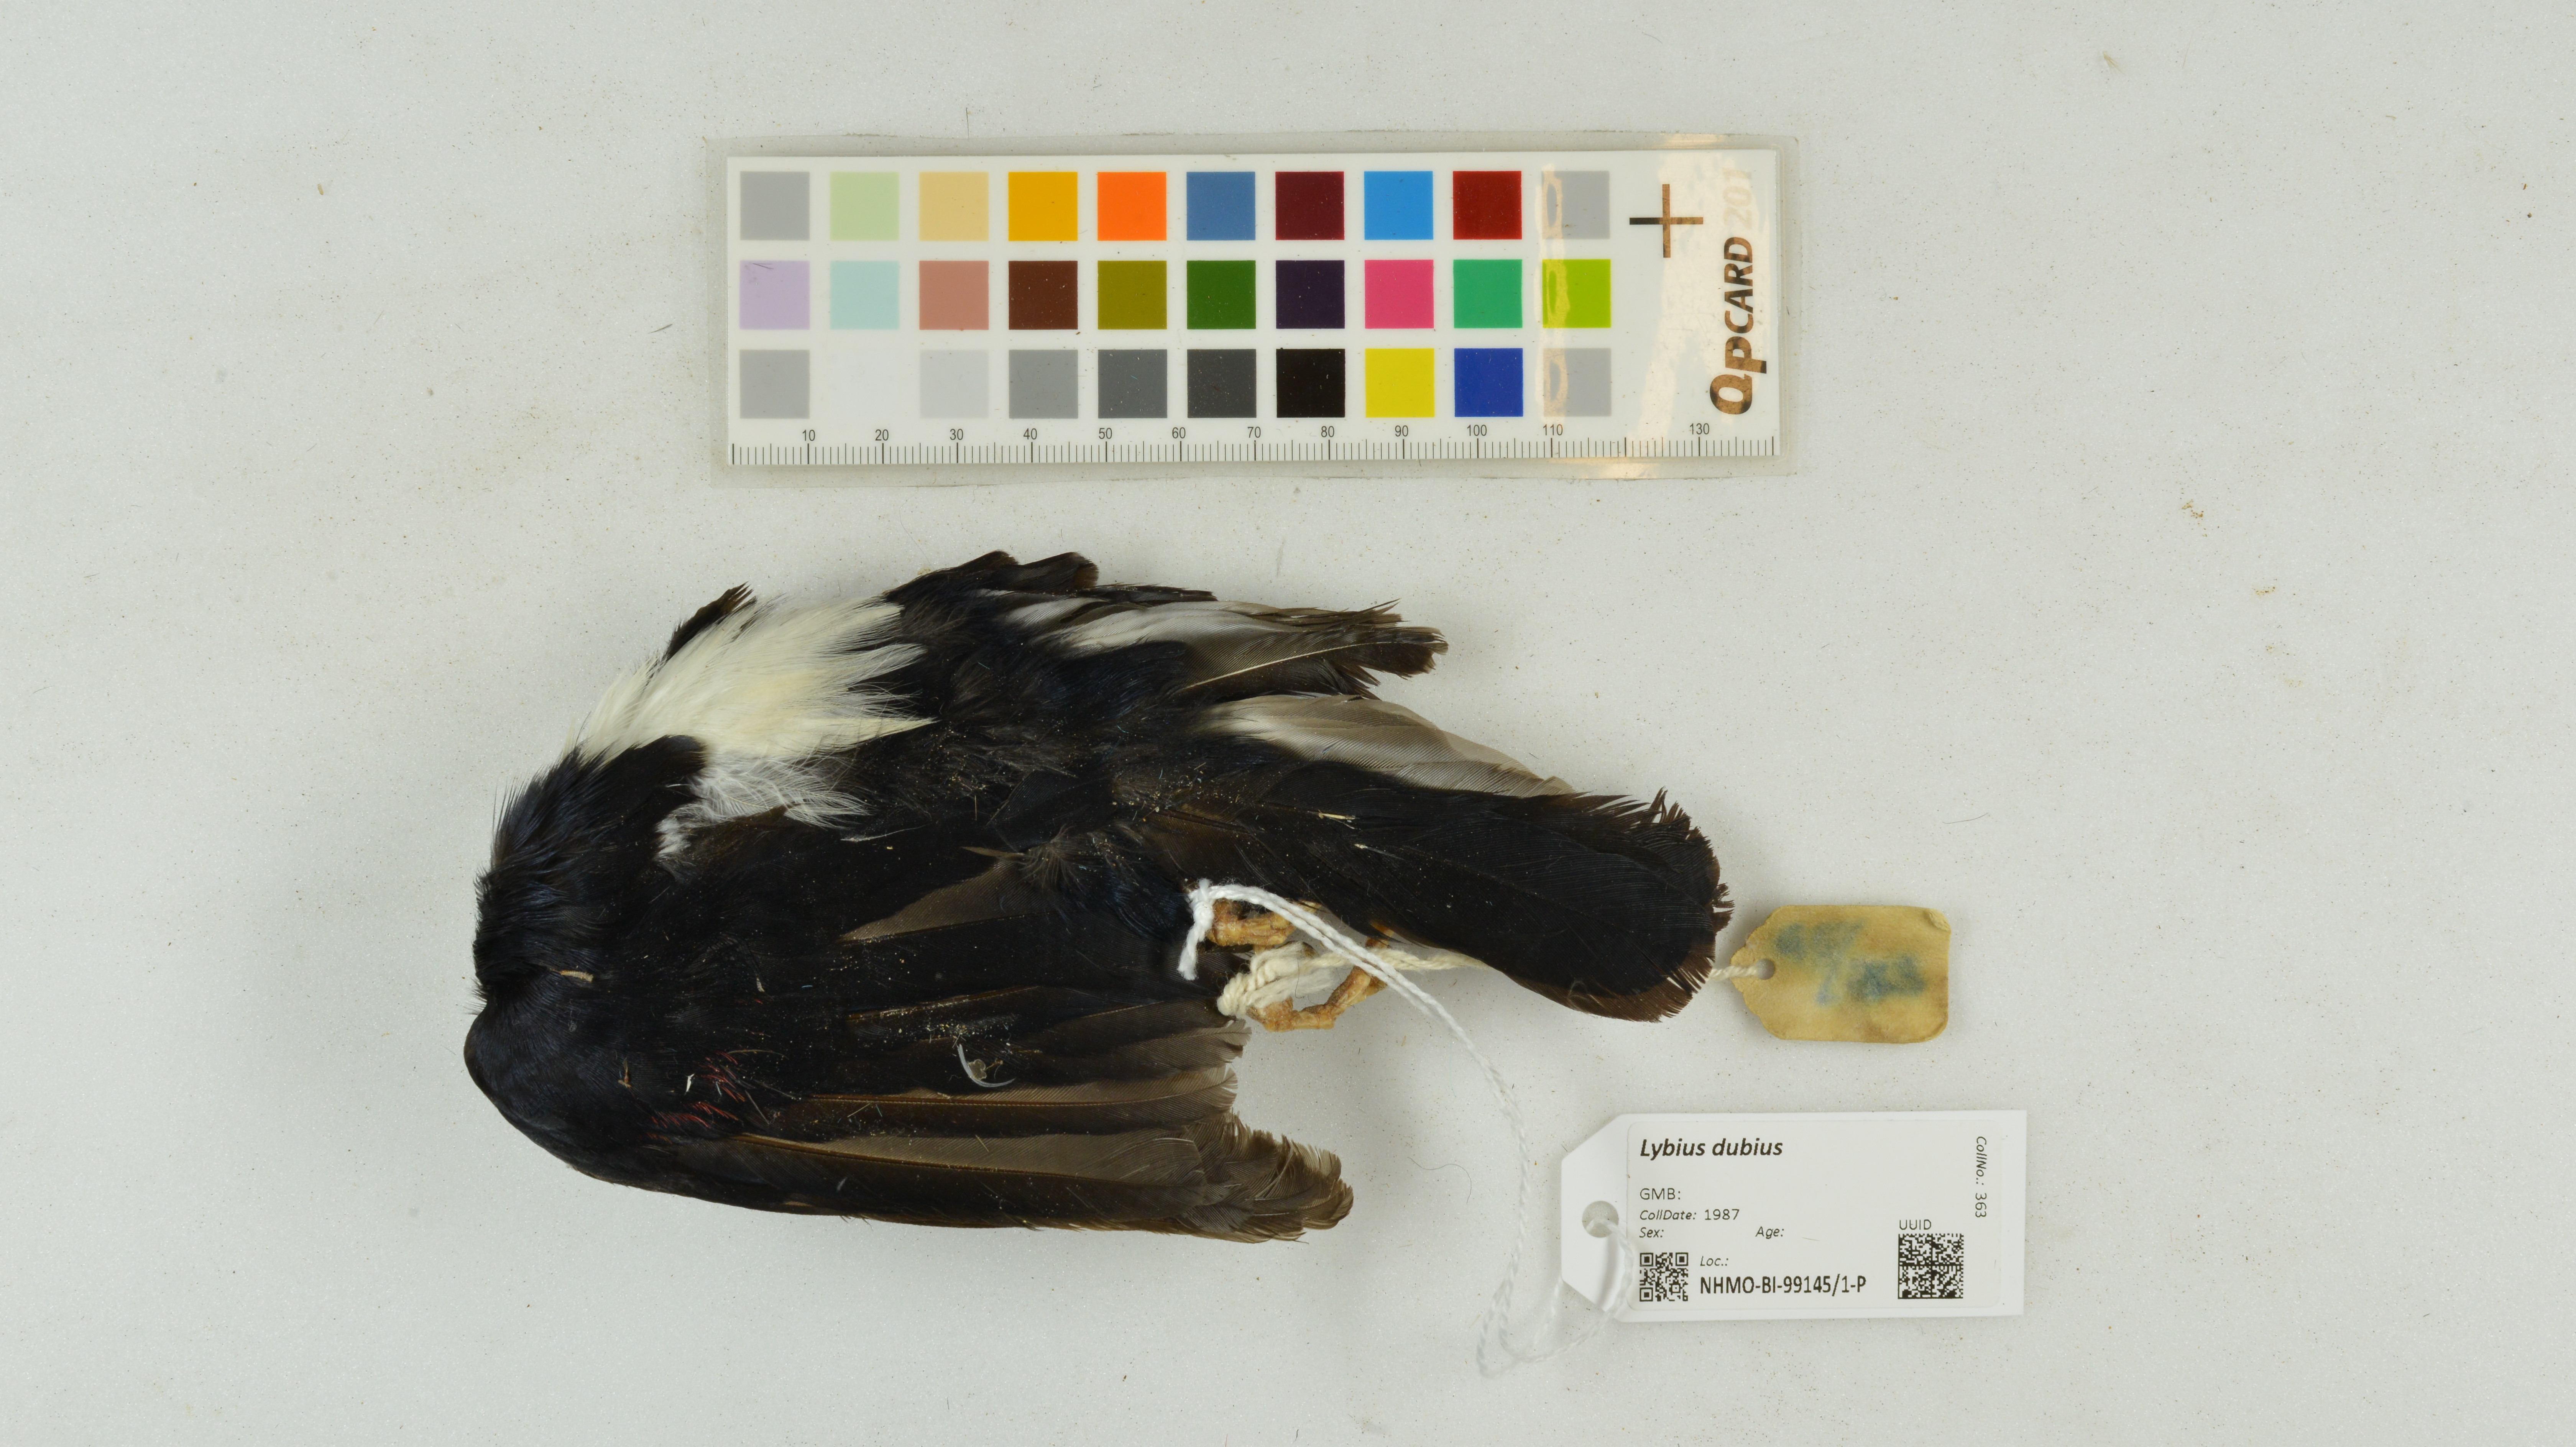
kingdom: Animalia
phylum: Chordata
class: Aves
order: Piciformes
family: Lybiidae
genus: Lybius
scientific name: Lybius dubius
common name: Bearded barbet
